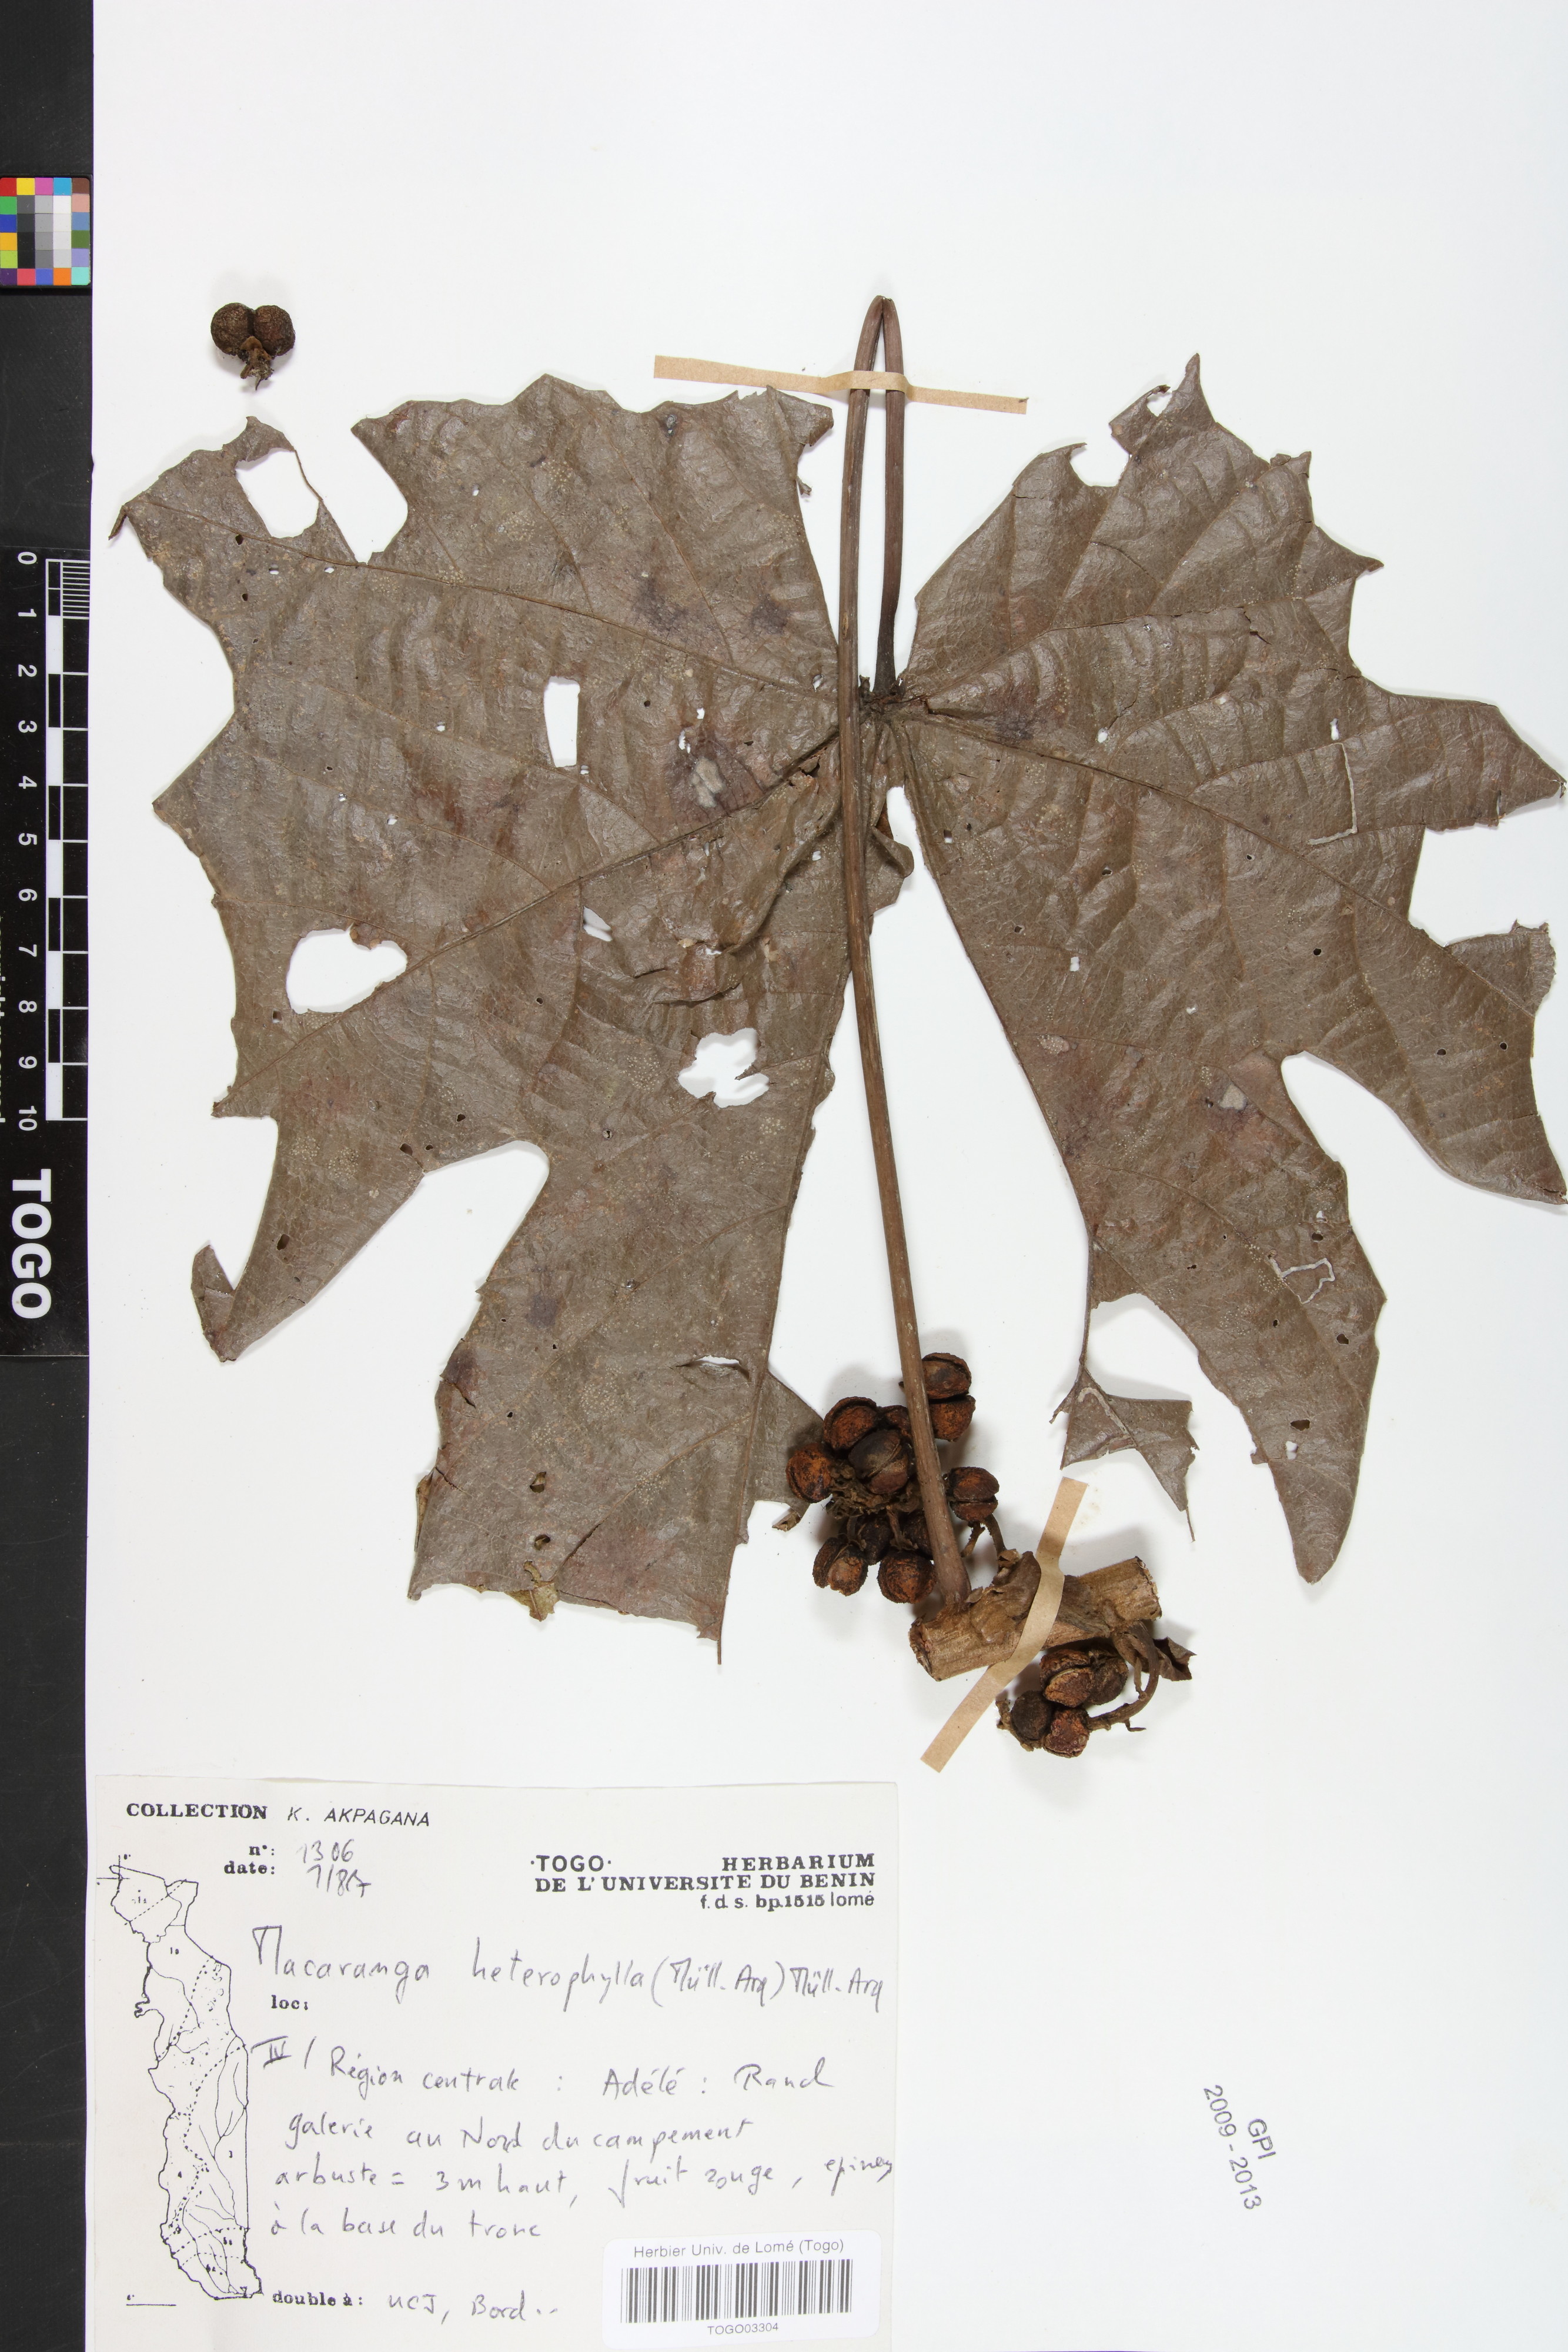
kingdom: Plantae
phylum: Tracheophyta
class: Magnoliopsida
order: Malpighiales
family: Euphorbiaceae
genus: Macaranga
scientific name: Macaranga heterophylla
